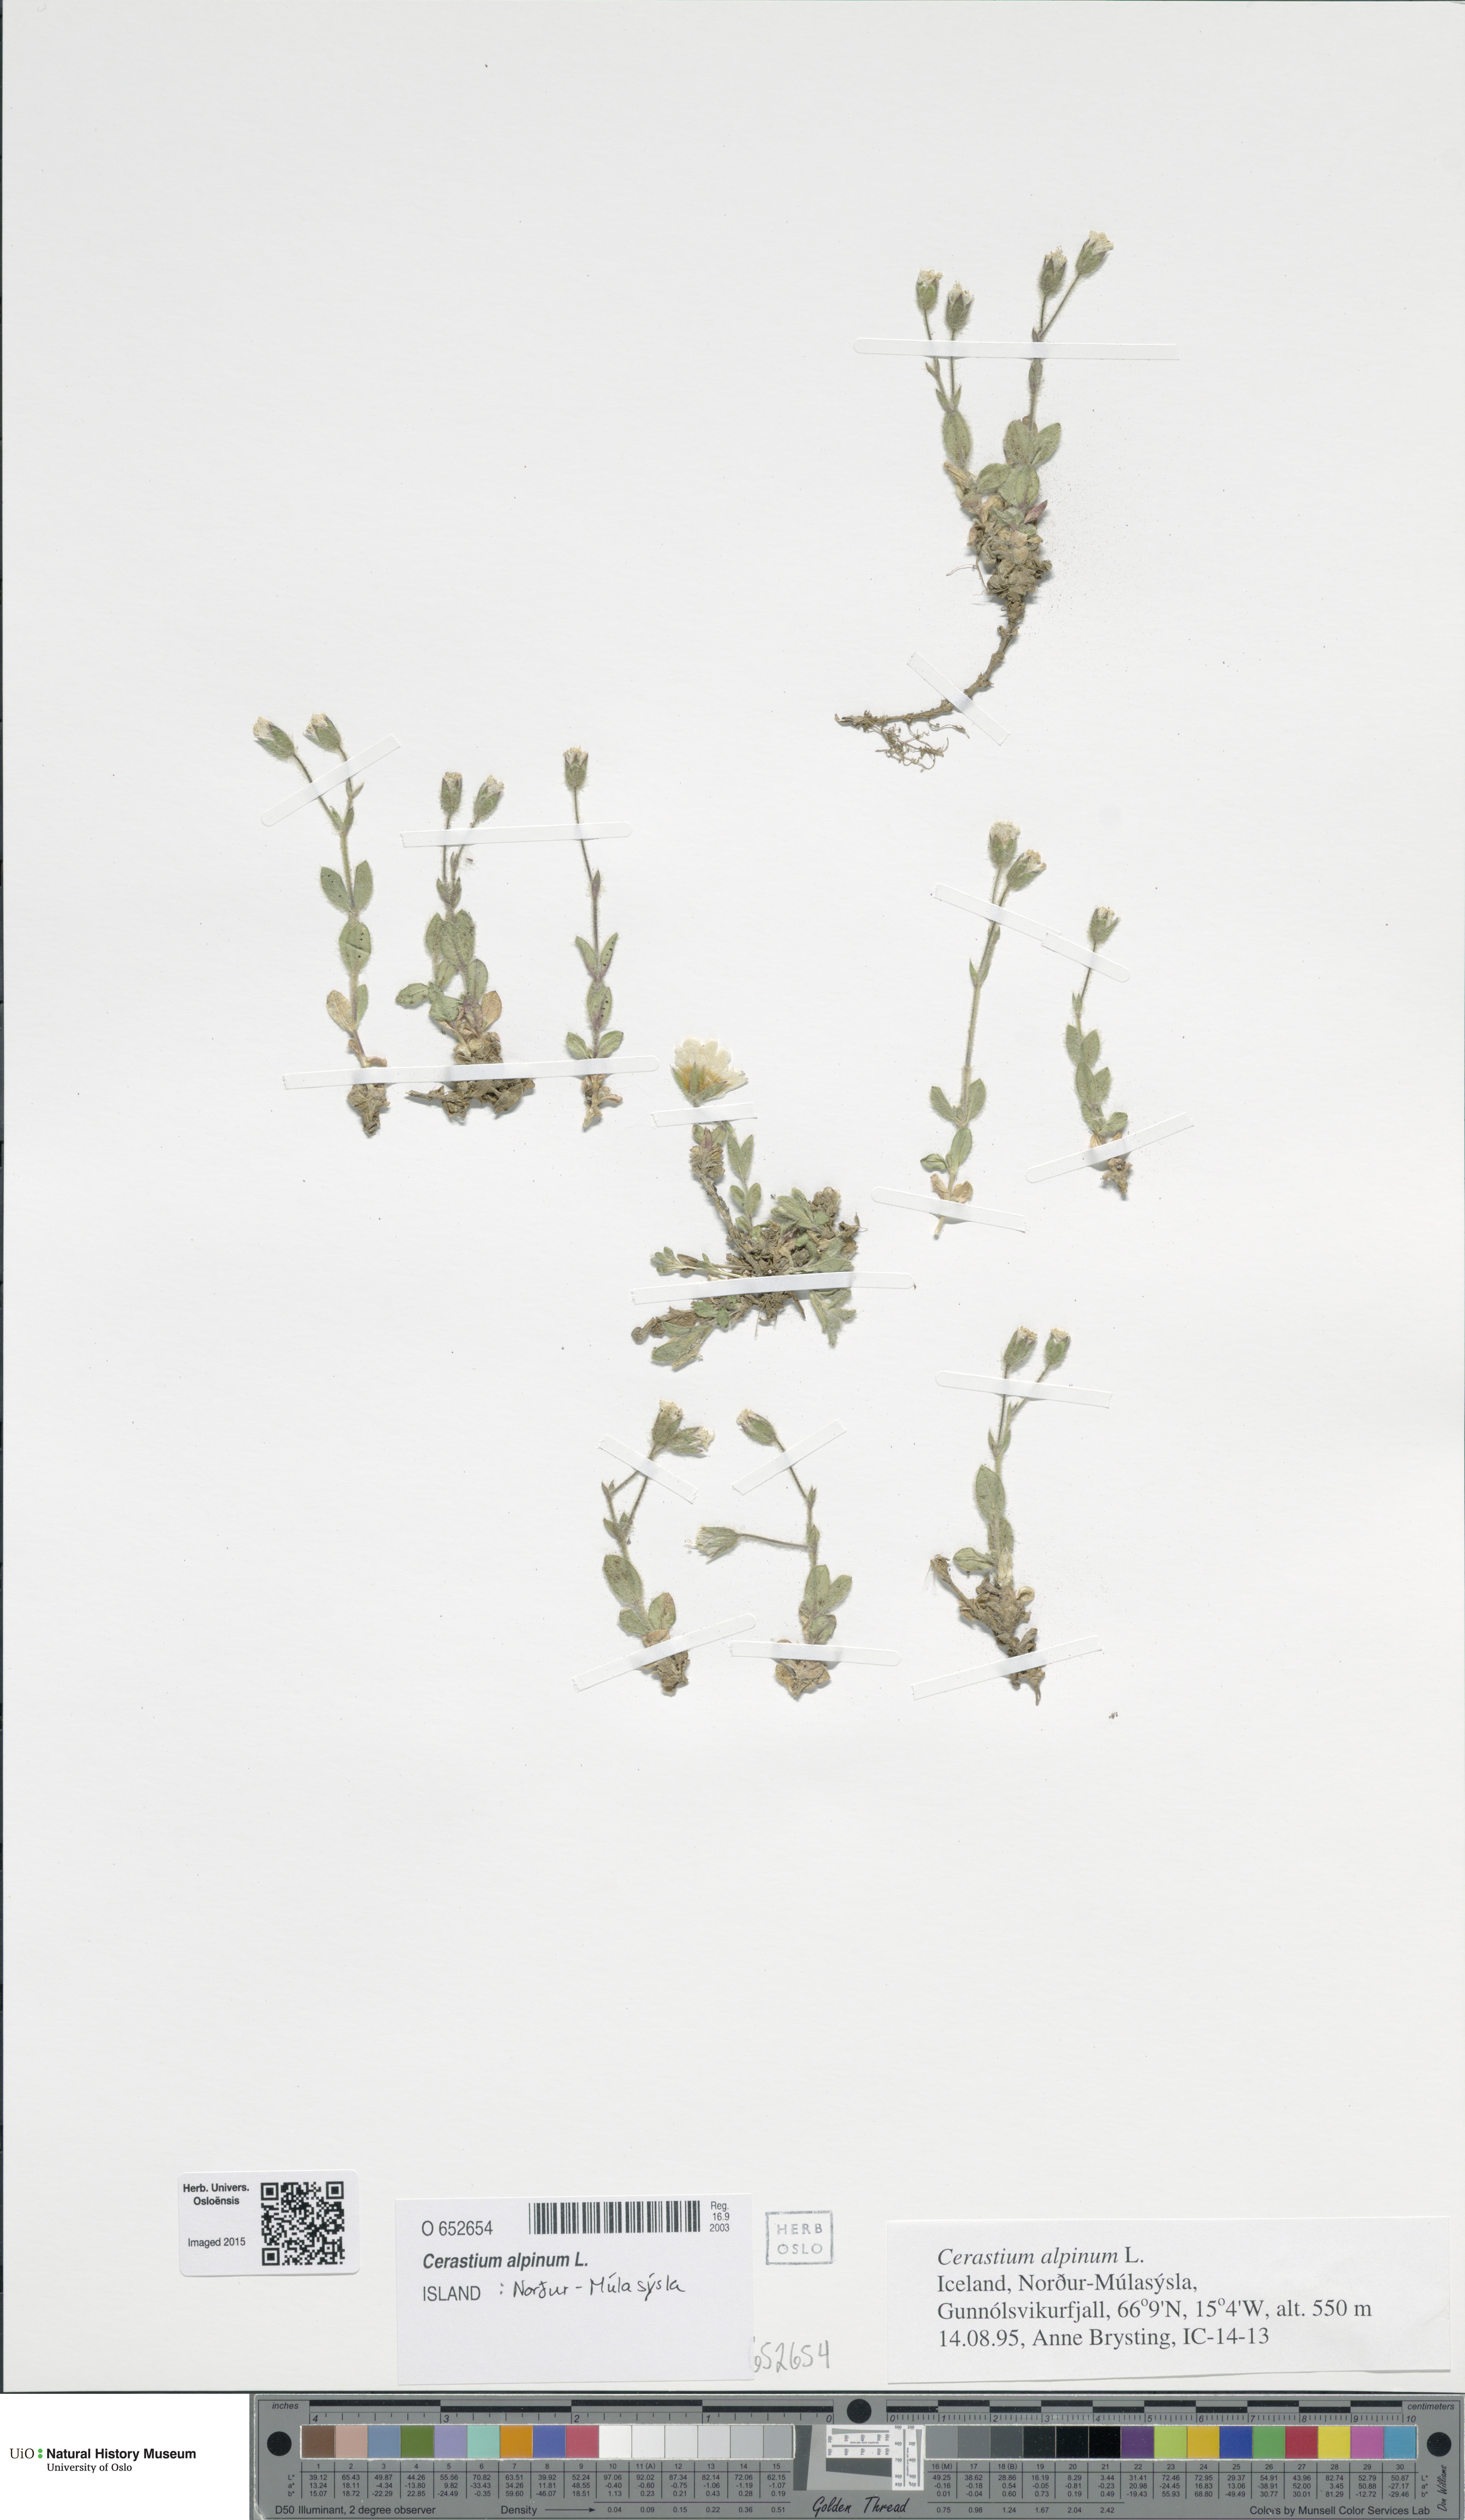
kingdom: Plantae
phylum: Tracheophyta
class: Magnoliopsida
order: Caryophyllales
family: Caryophyllaceae
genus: Cerastium
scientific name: Cerastium alpinum
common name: Alpine mouse-ear
